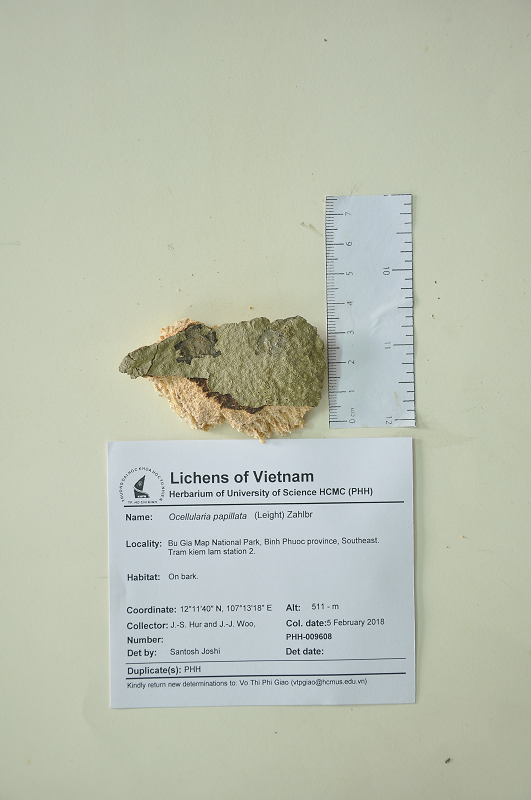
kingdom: Fungi
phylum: Ascomycota
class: Lecanoromycetes
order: Ostropales
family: Graphidaceae
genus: Ocellularia
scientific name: Ocellularia papillata
